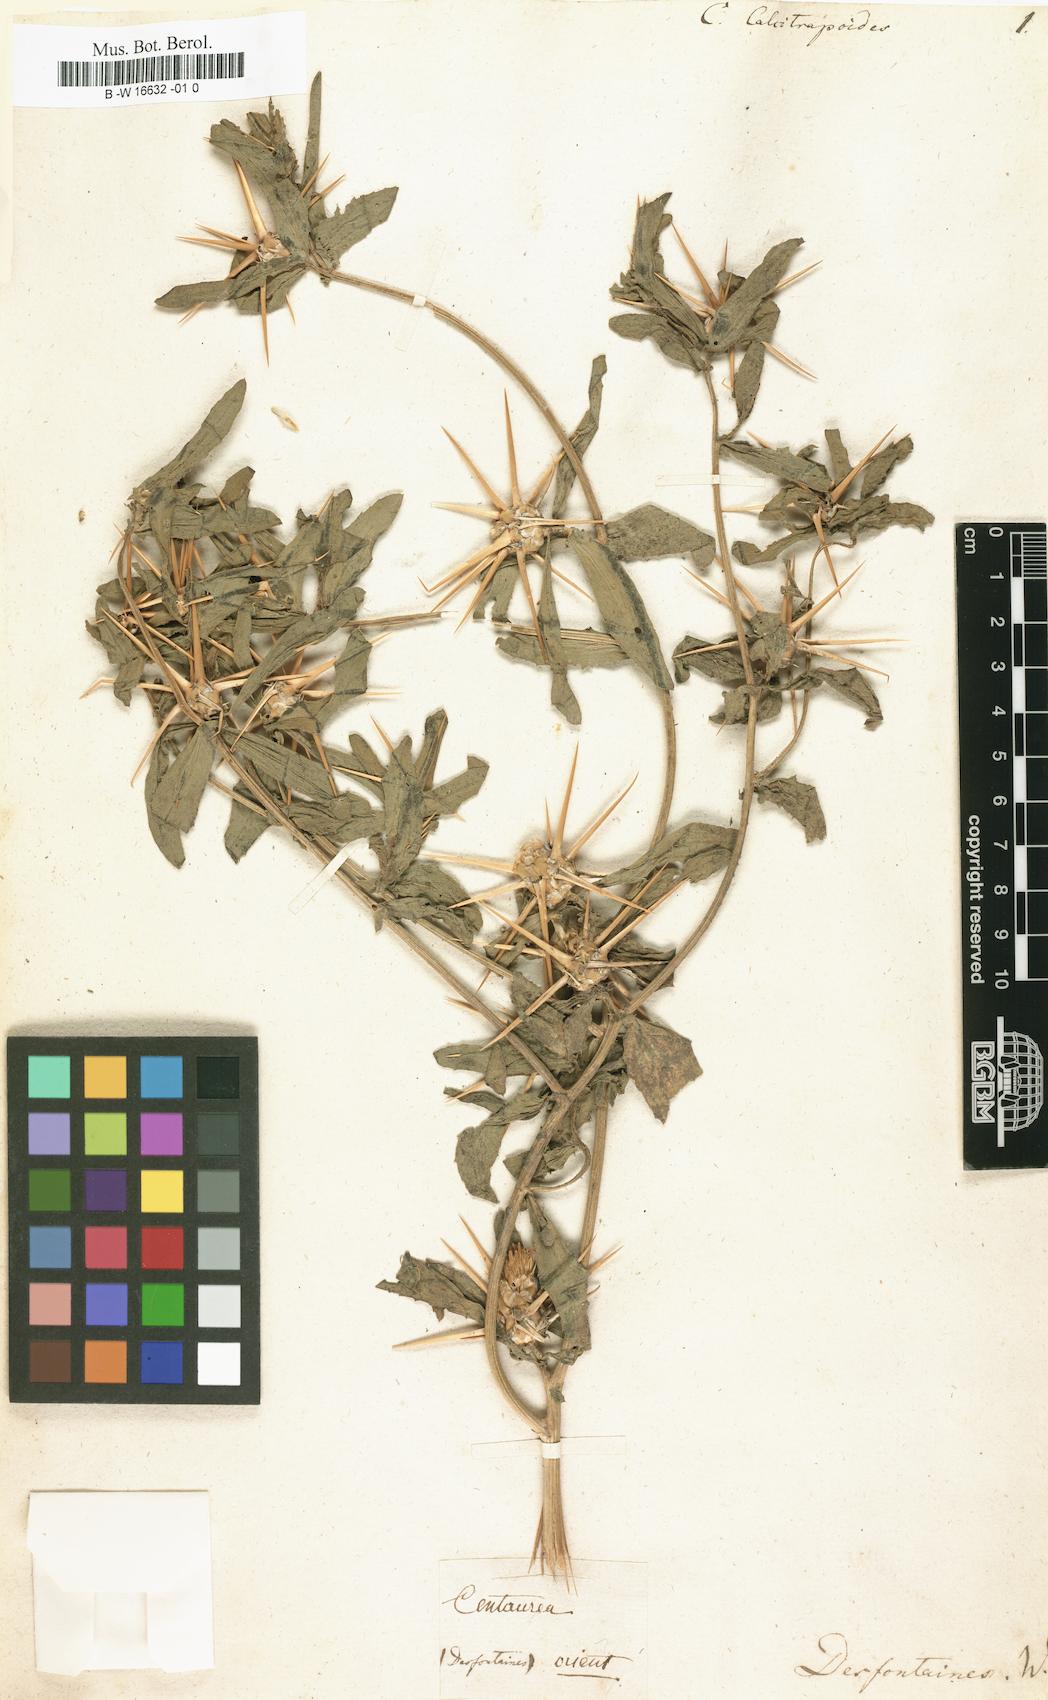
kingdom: Plantae
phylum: Tracheophyta
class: Magnoliopsida
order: Asterales
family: Asteraceae
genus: Centaurea
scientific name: Centaurea
